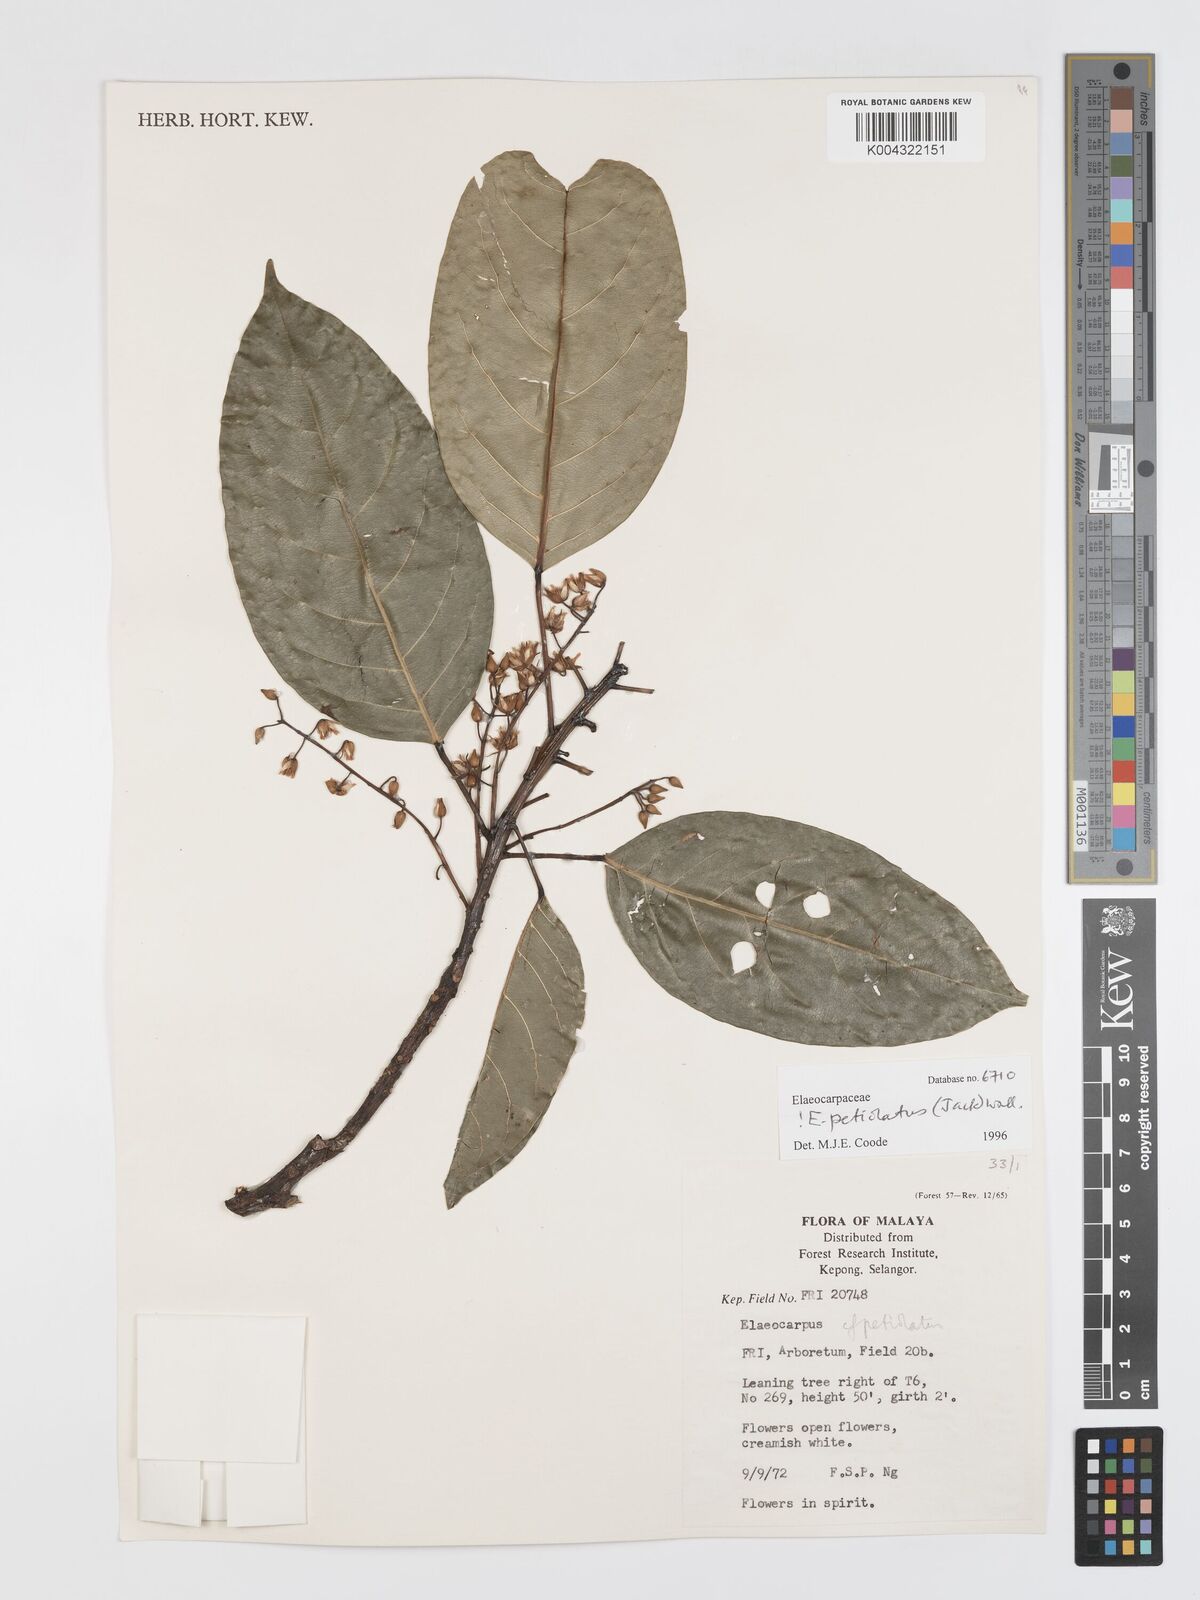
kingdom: Plantae
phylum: Tracheophyta
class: Magnoliopsida
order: Oxalidales
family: Elaeocarpaceae
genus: Elaeocarpus
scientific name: Elaeocarpus
